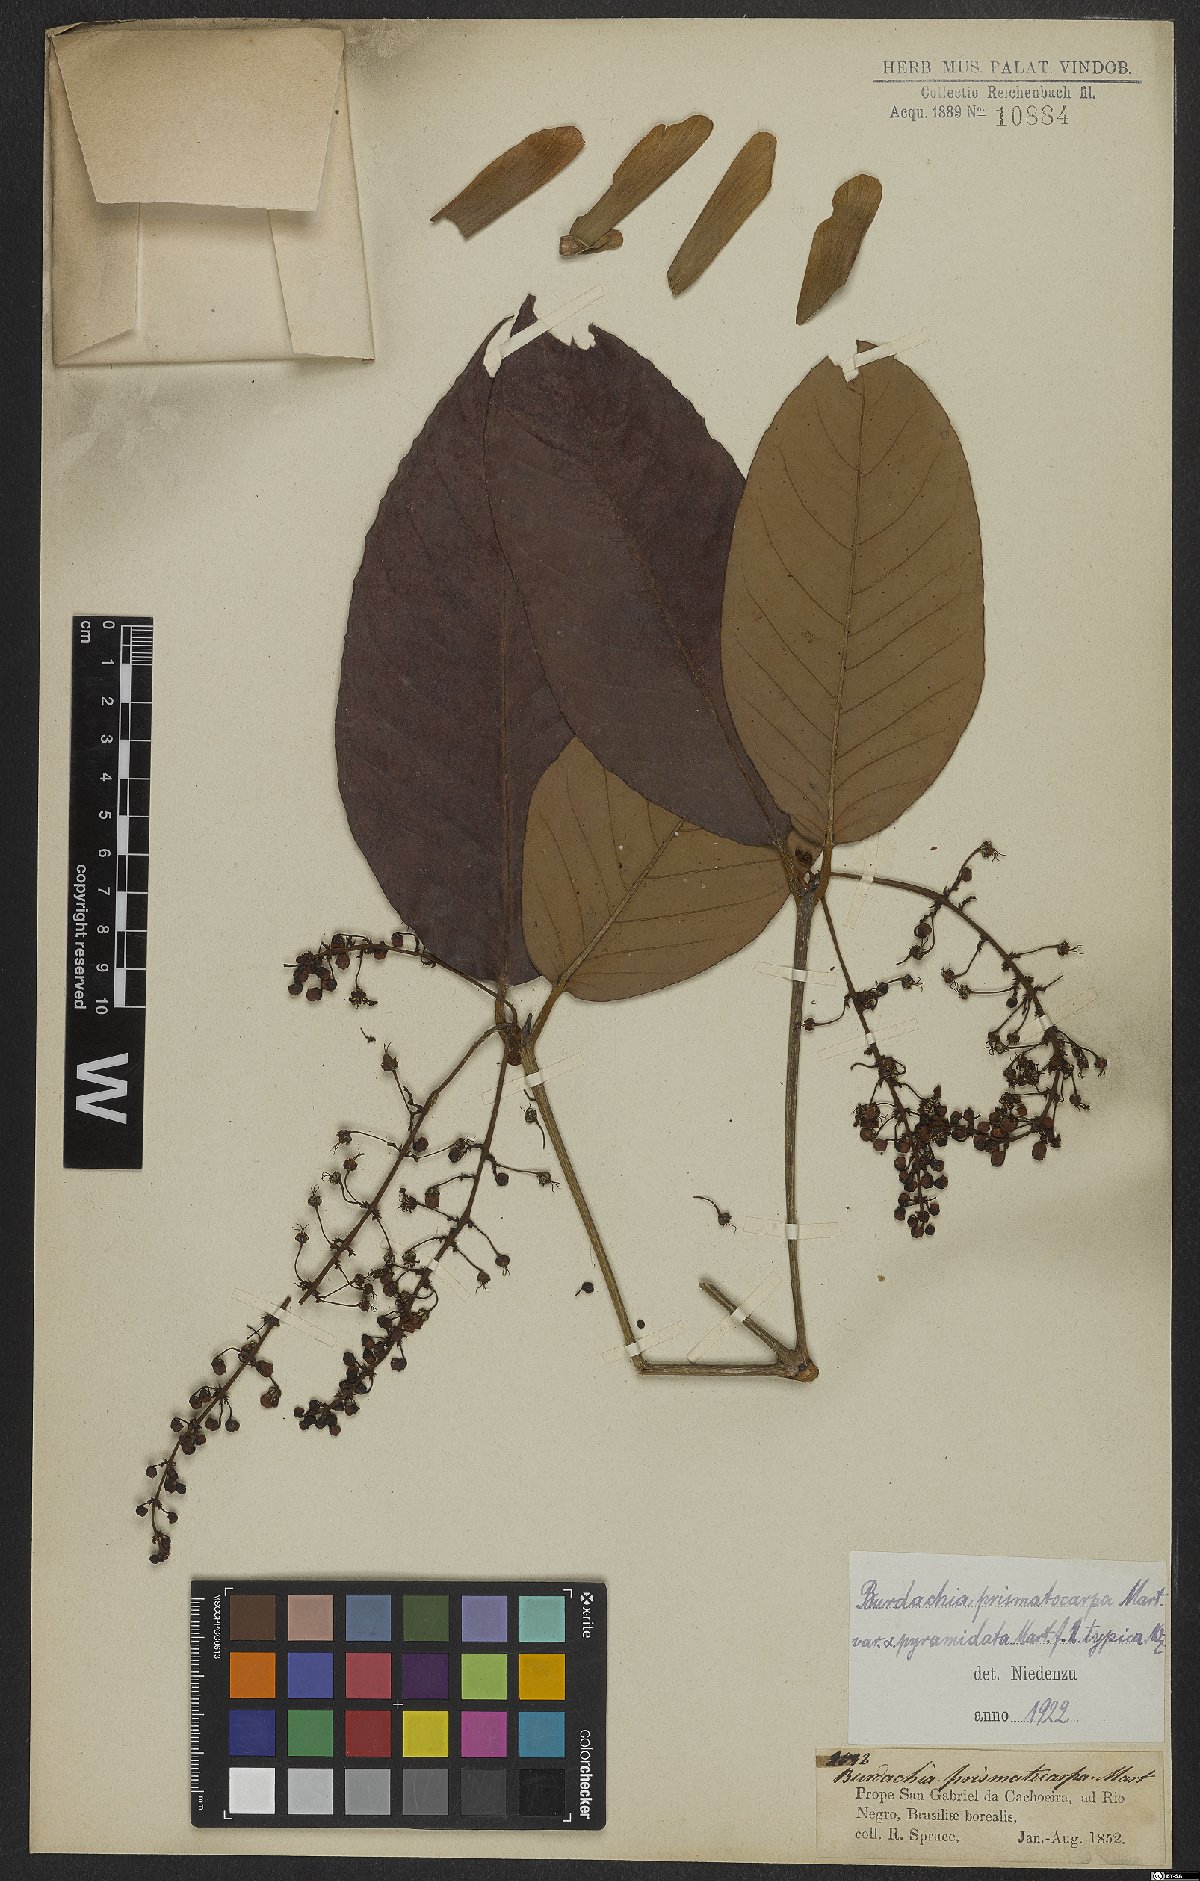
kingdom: Plantae
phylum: Tracheophyta
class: Magnoliopsida
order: Malpighiales
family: Malpighiaceae
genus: Burdachia
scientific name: Burdachia prismatocarpa
